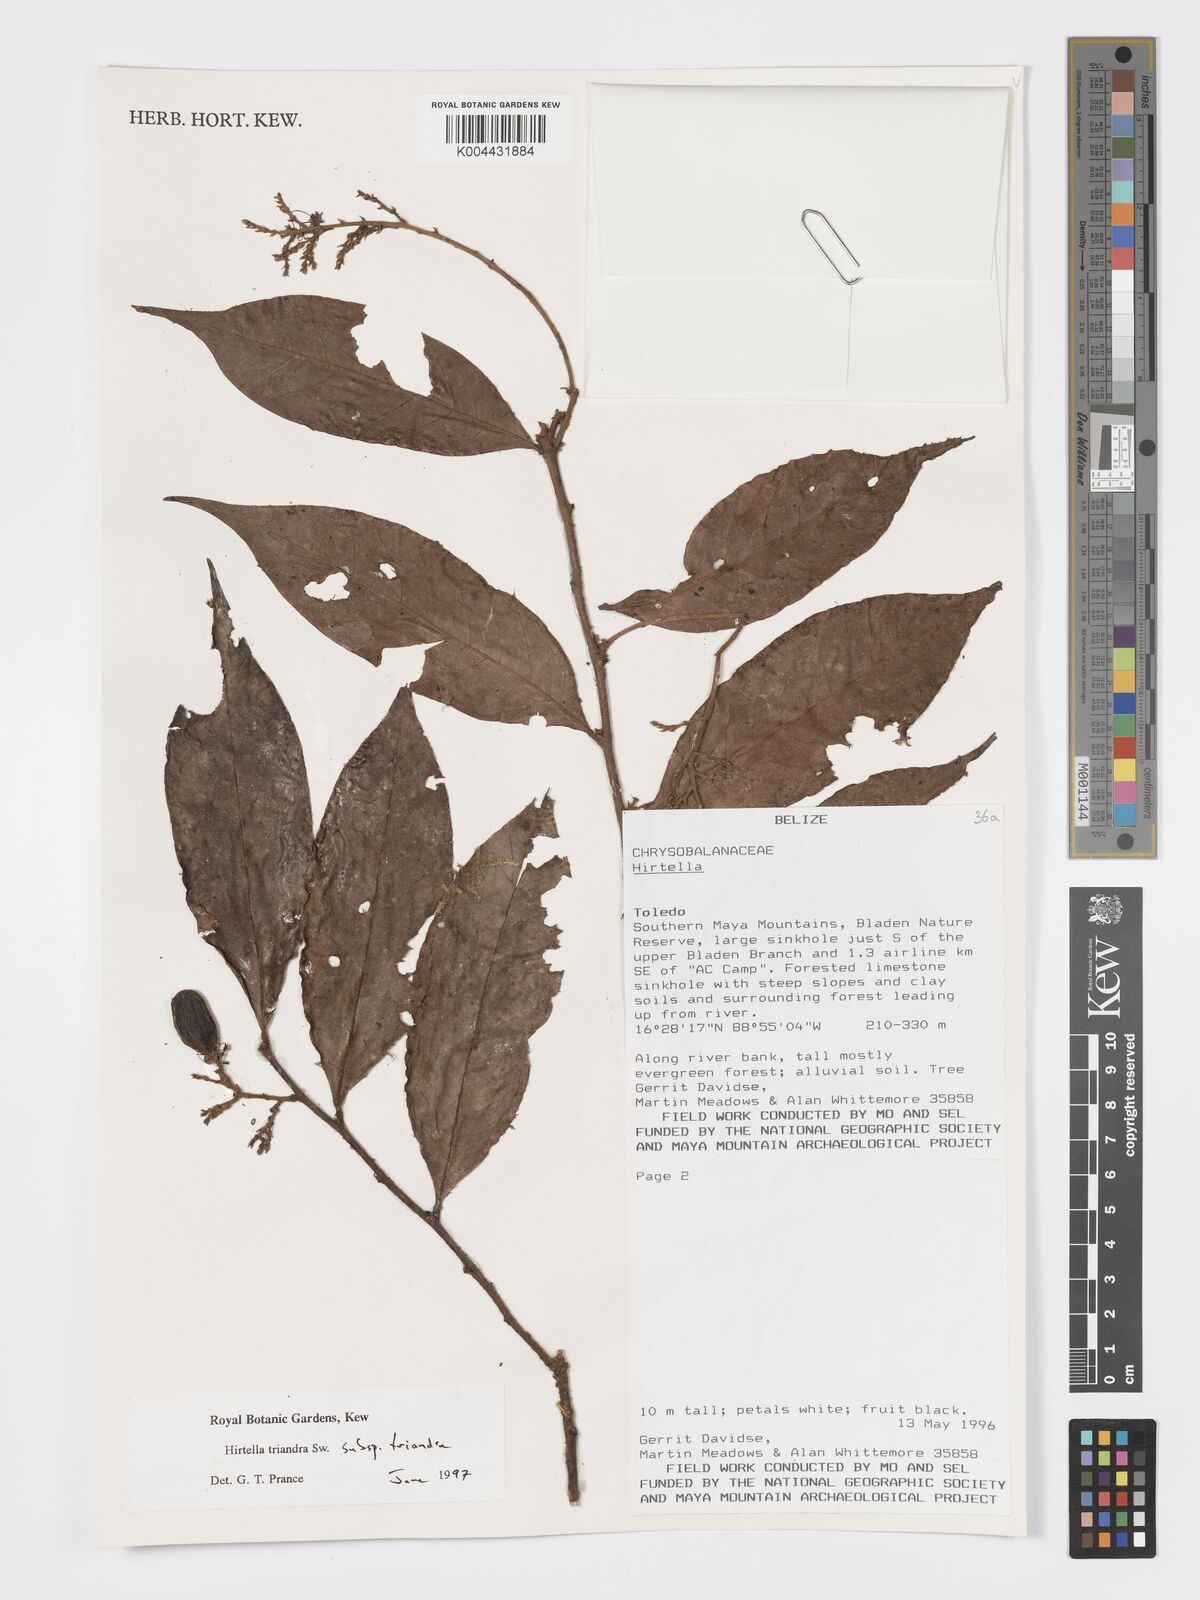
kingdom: Plantae
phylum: Tracheophyta
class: Magnoliopsida
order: Malpighiales
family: Chrysobalanaceae
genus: Hirtella
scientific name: Hirtella triandra
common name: Hairy plum
